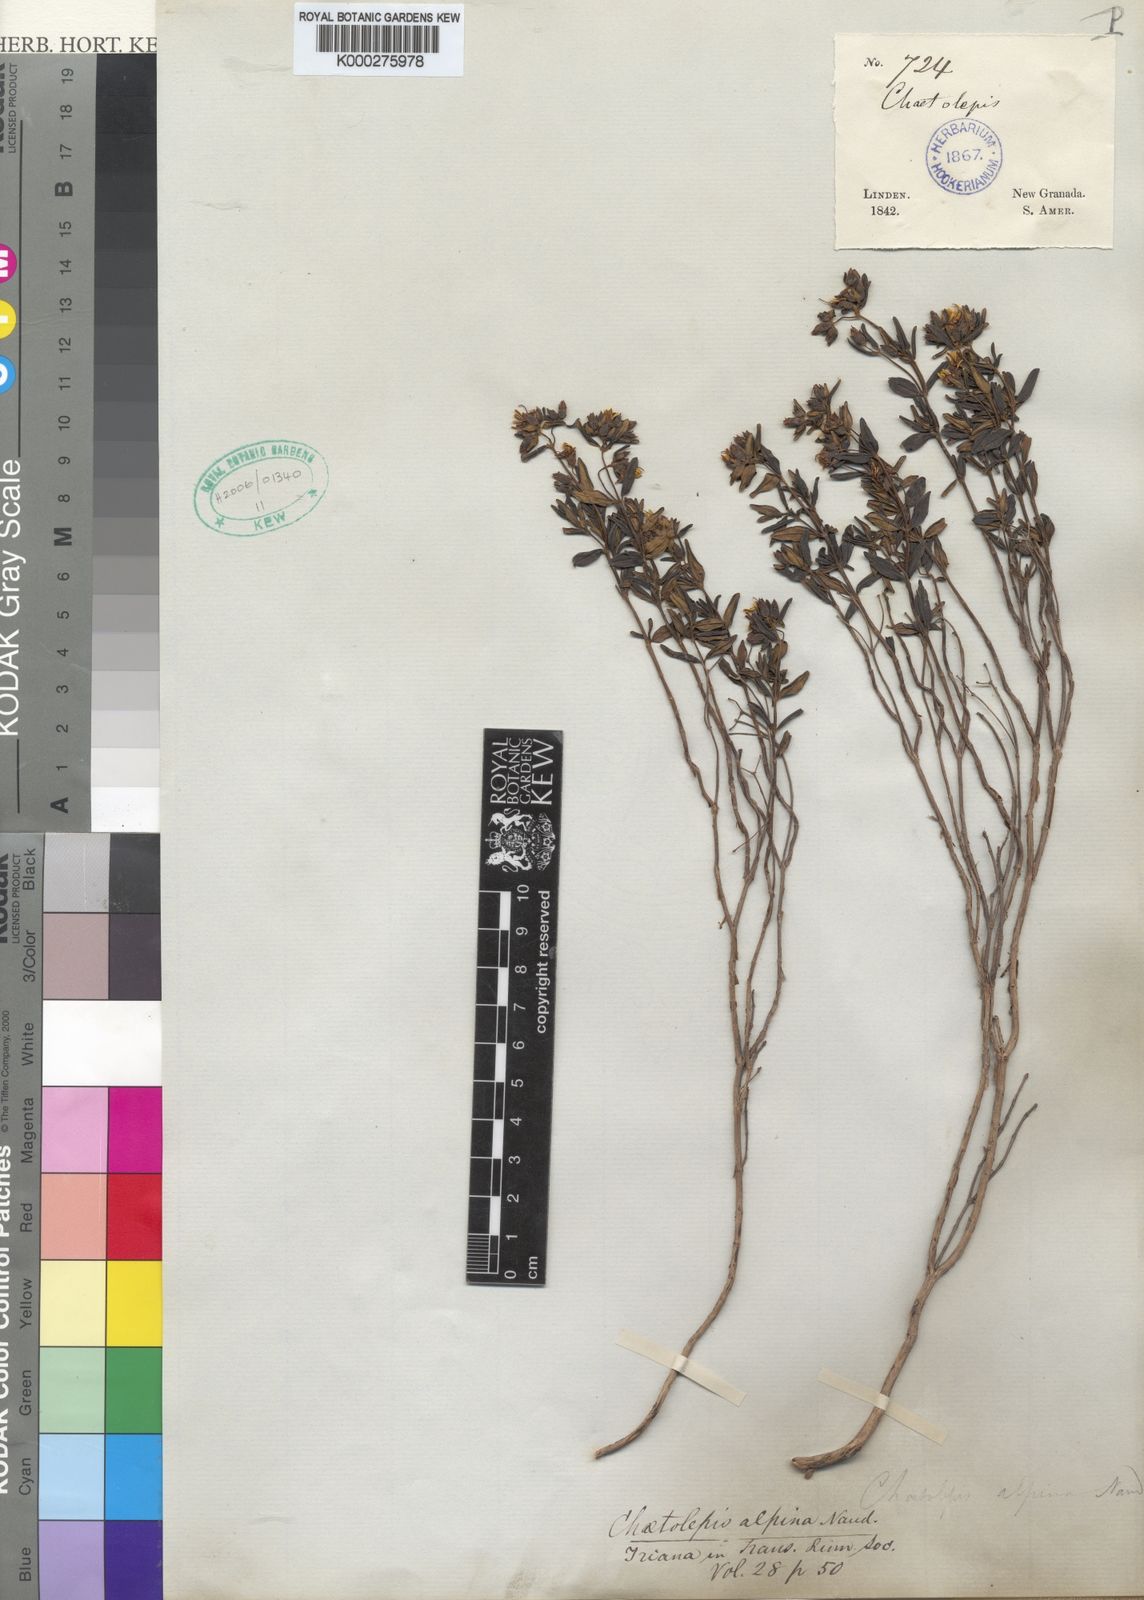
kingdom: Plantae
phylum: Tracheophyta
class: Magnoliopsida
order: Myrtales
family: Melastomataceae
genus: Chaetolepis
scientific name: Chaetolepis alpina
